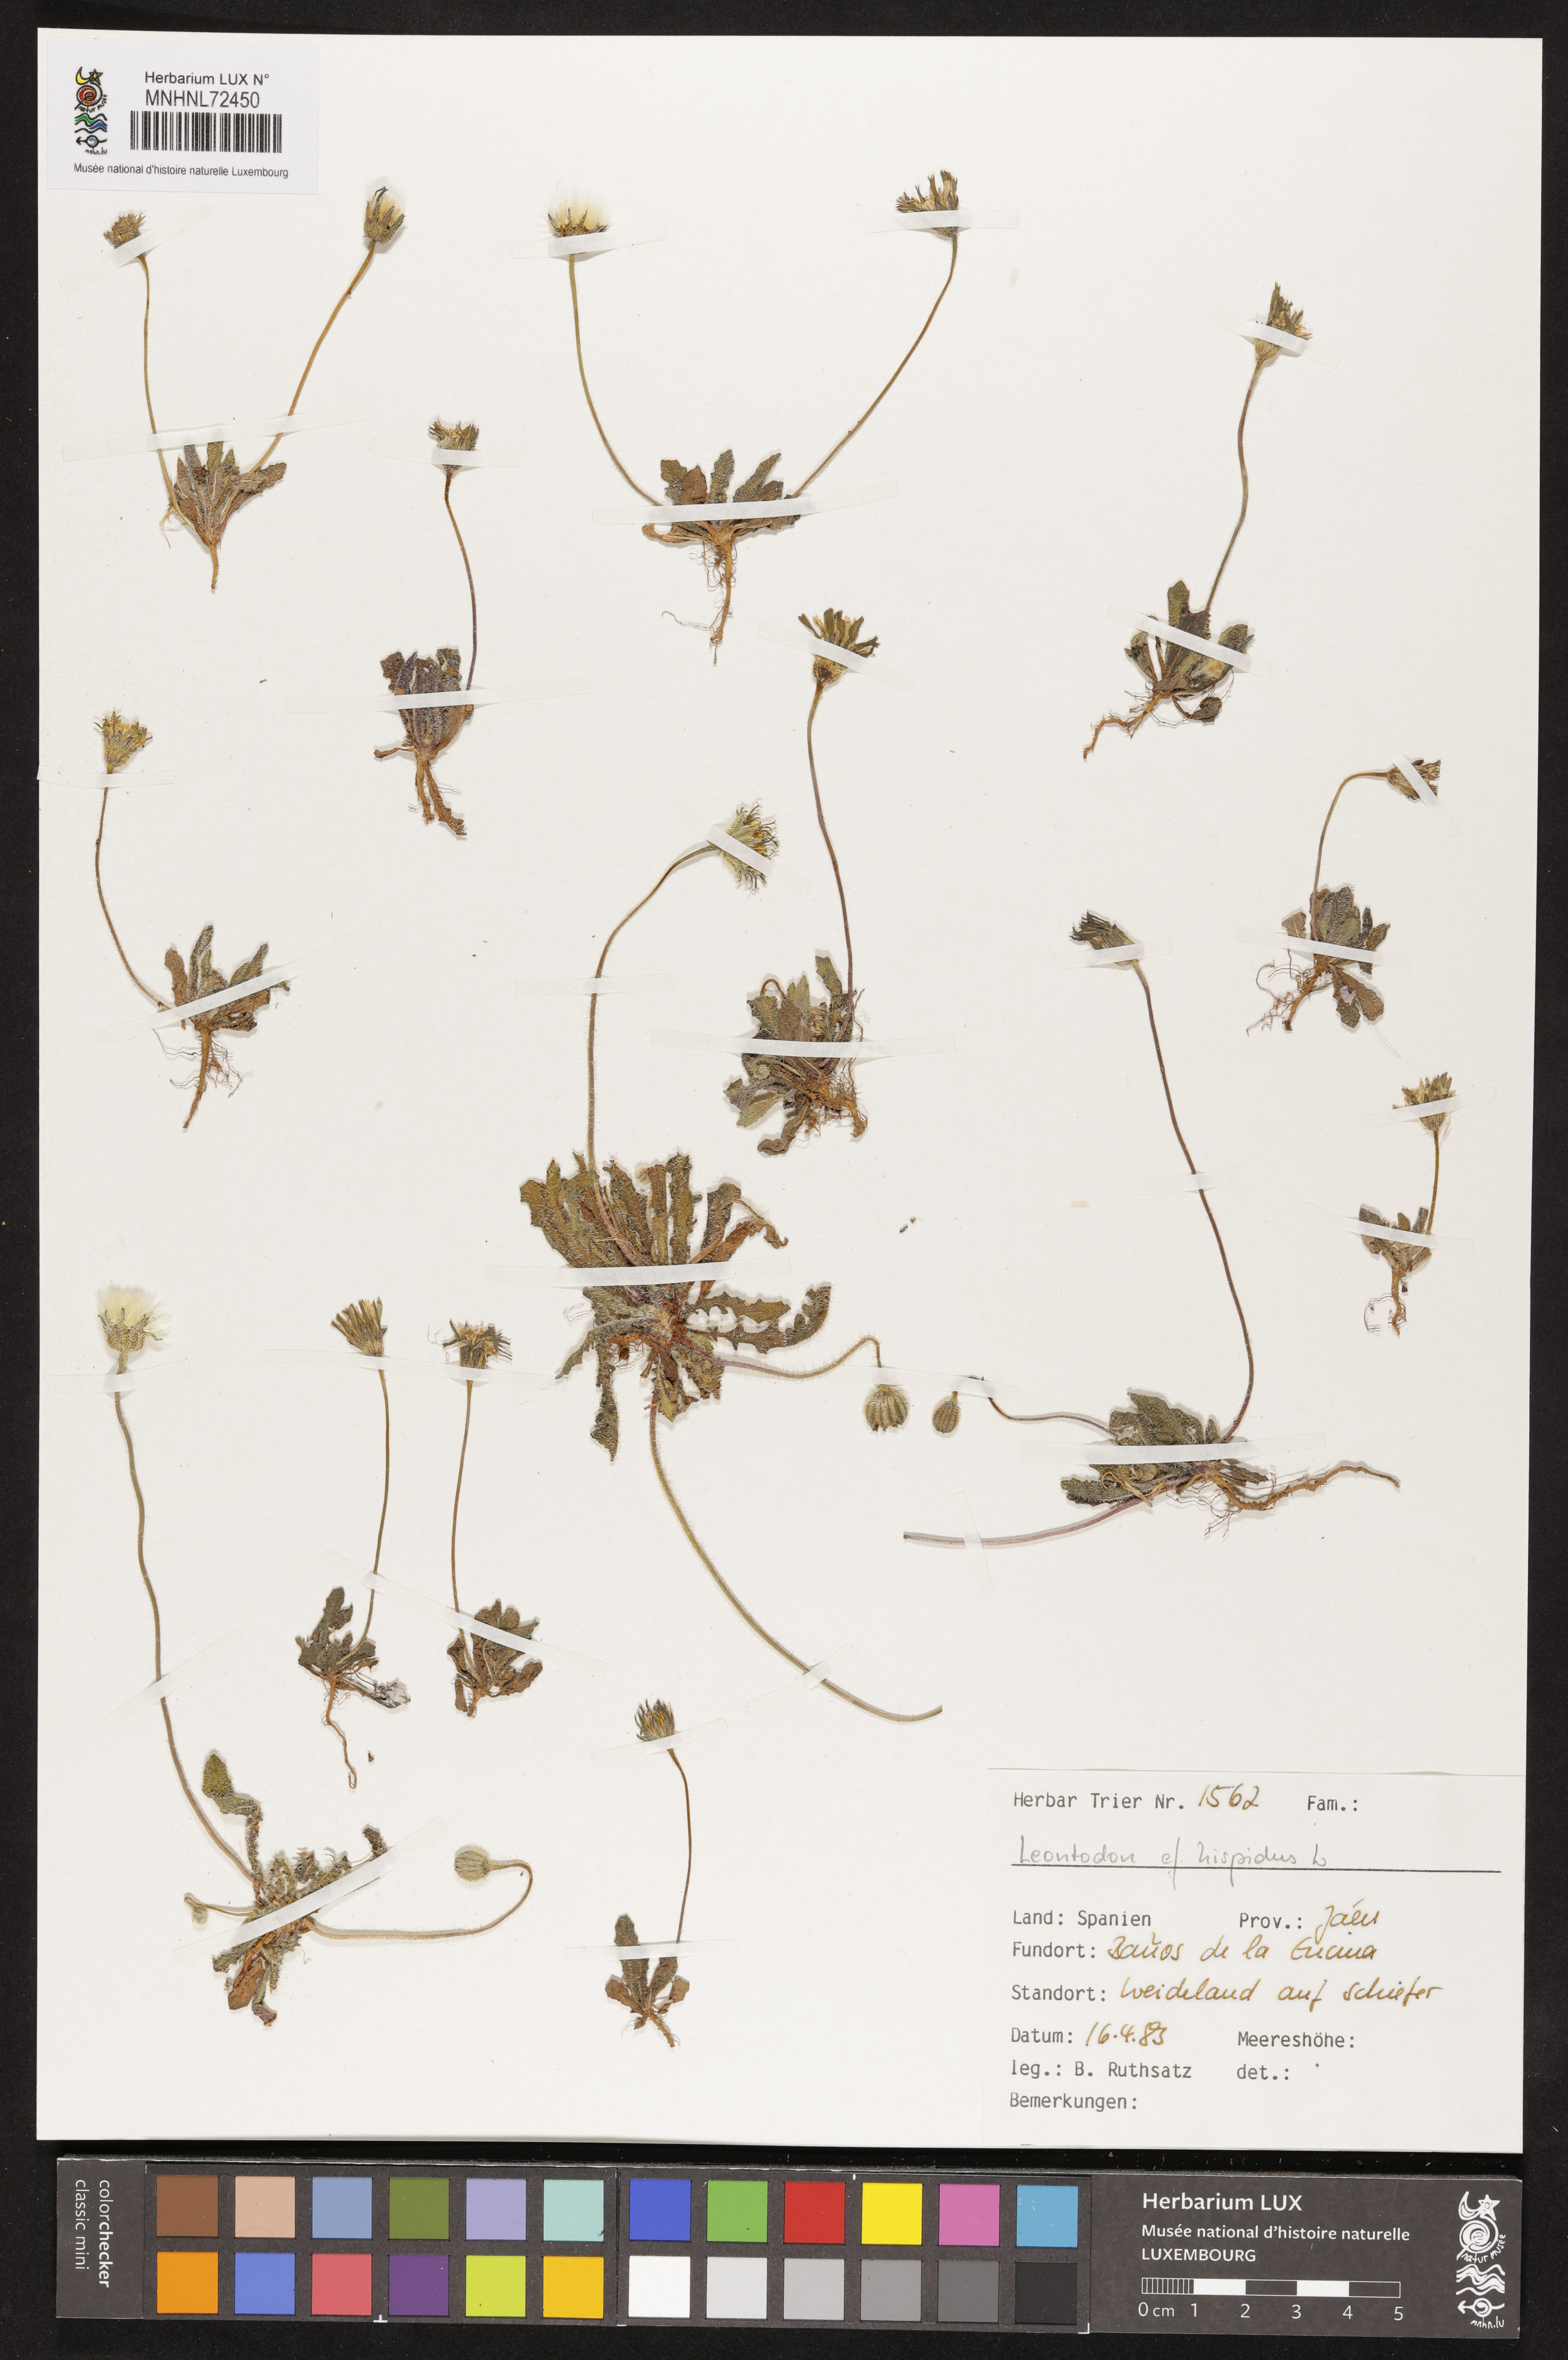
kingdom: Plantae
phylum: Tracheophyta
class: Magnoliopsida
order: Asterales
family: Asteraceae
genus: Leontodon
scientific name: Leontodon hispidus
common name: Rough hawkbit
